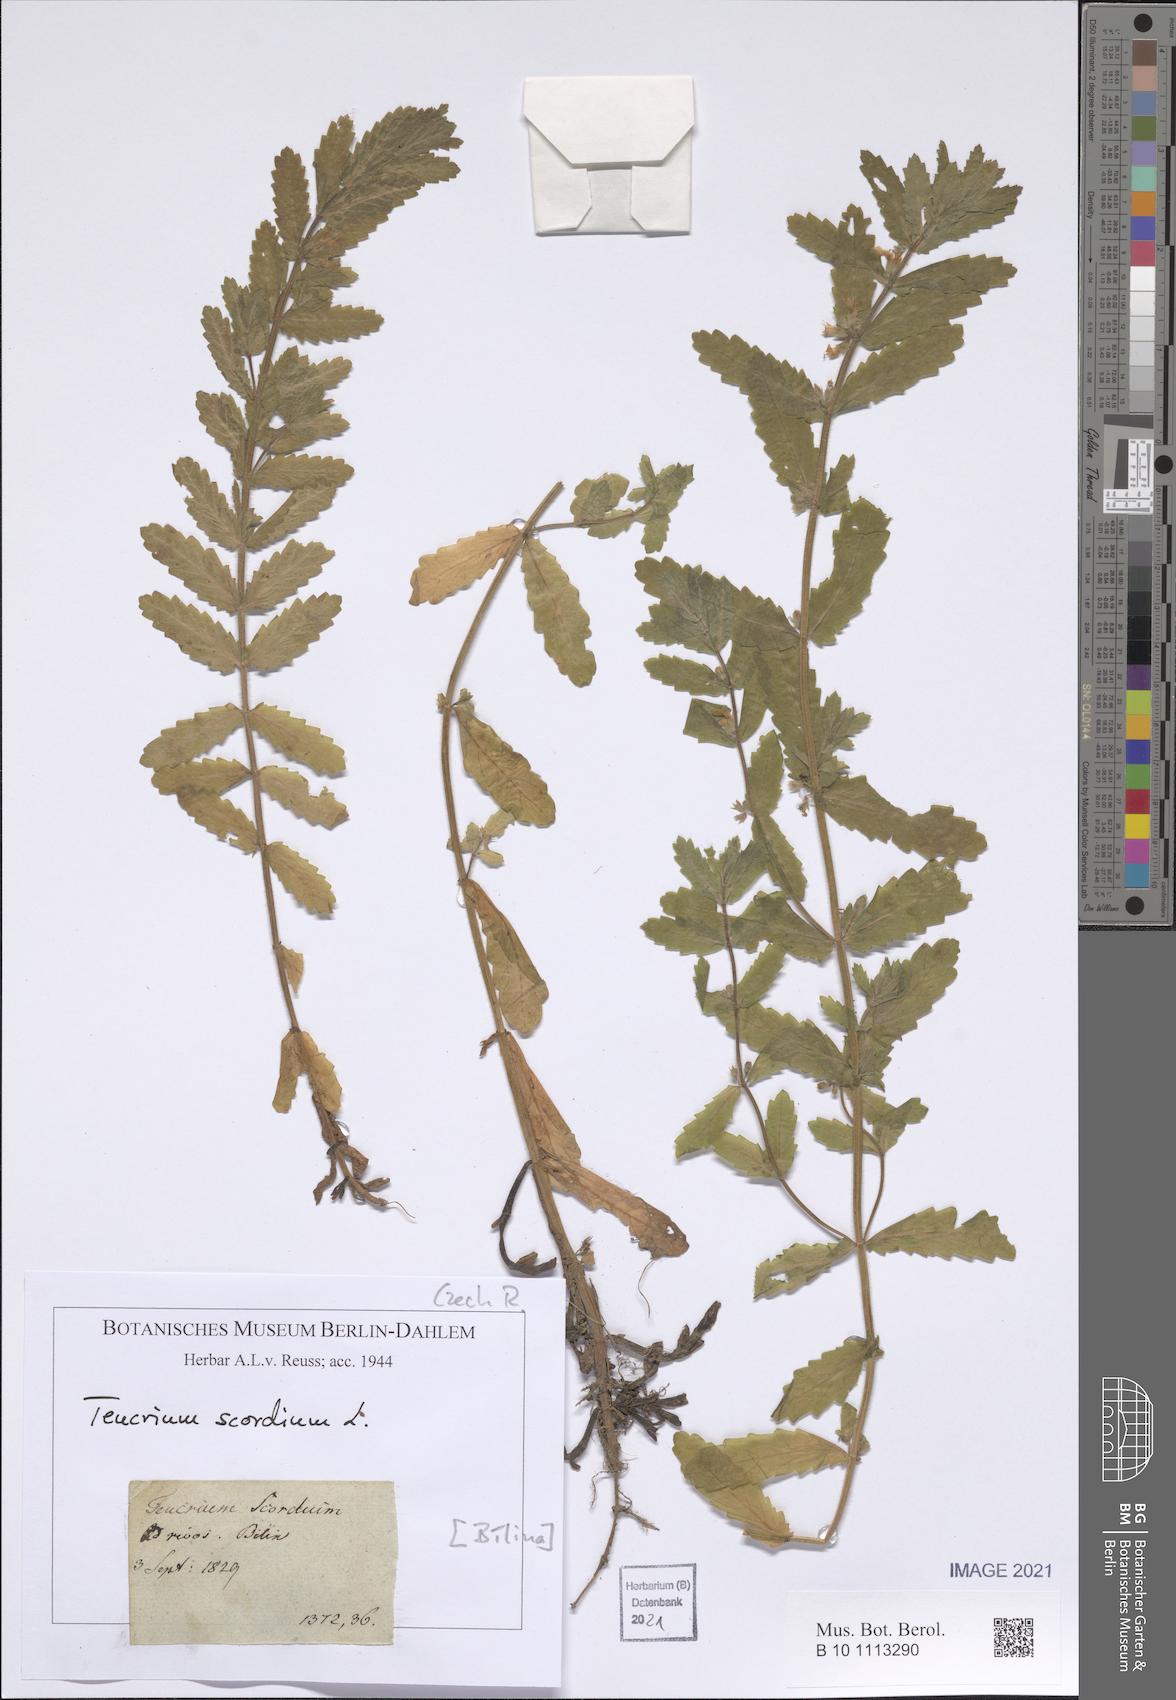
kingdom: Plantae
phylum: Tracheophyta
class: Magnoliopsida
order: Lamiales
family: Lamiaceae
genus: Teucrium
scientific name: Teucrium scordium
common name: Water germander
